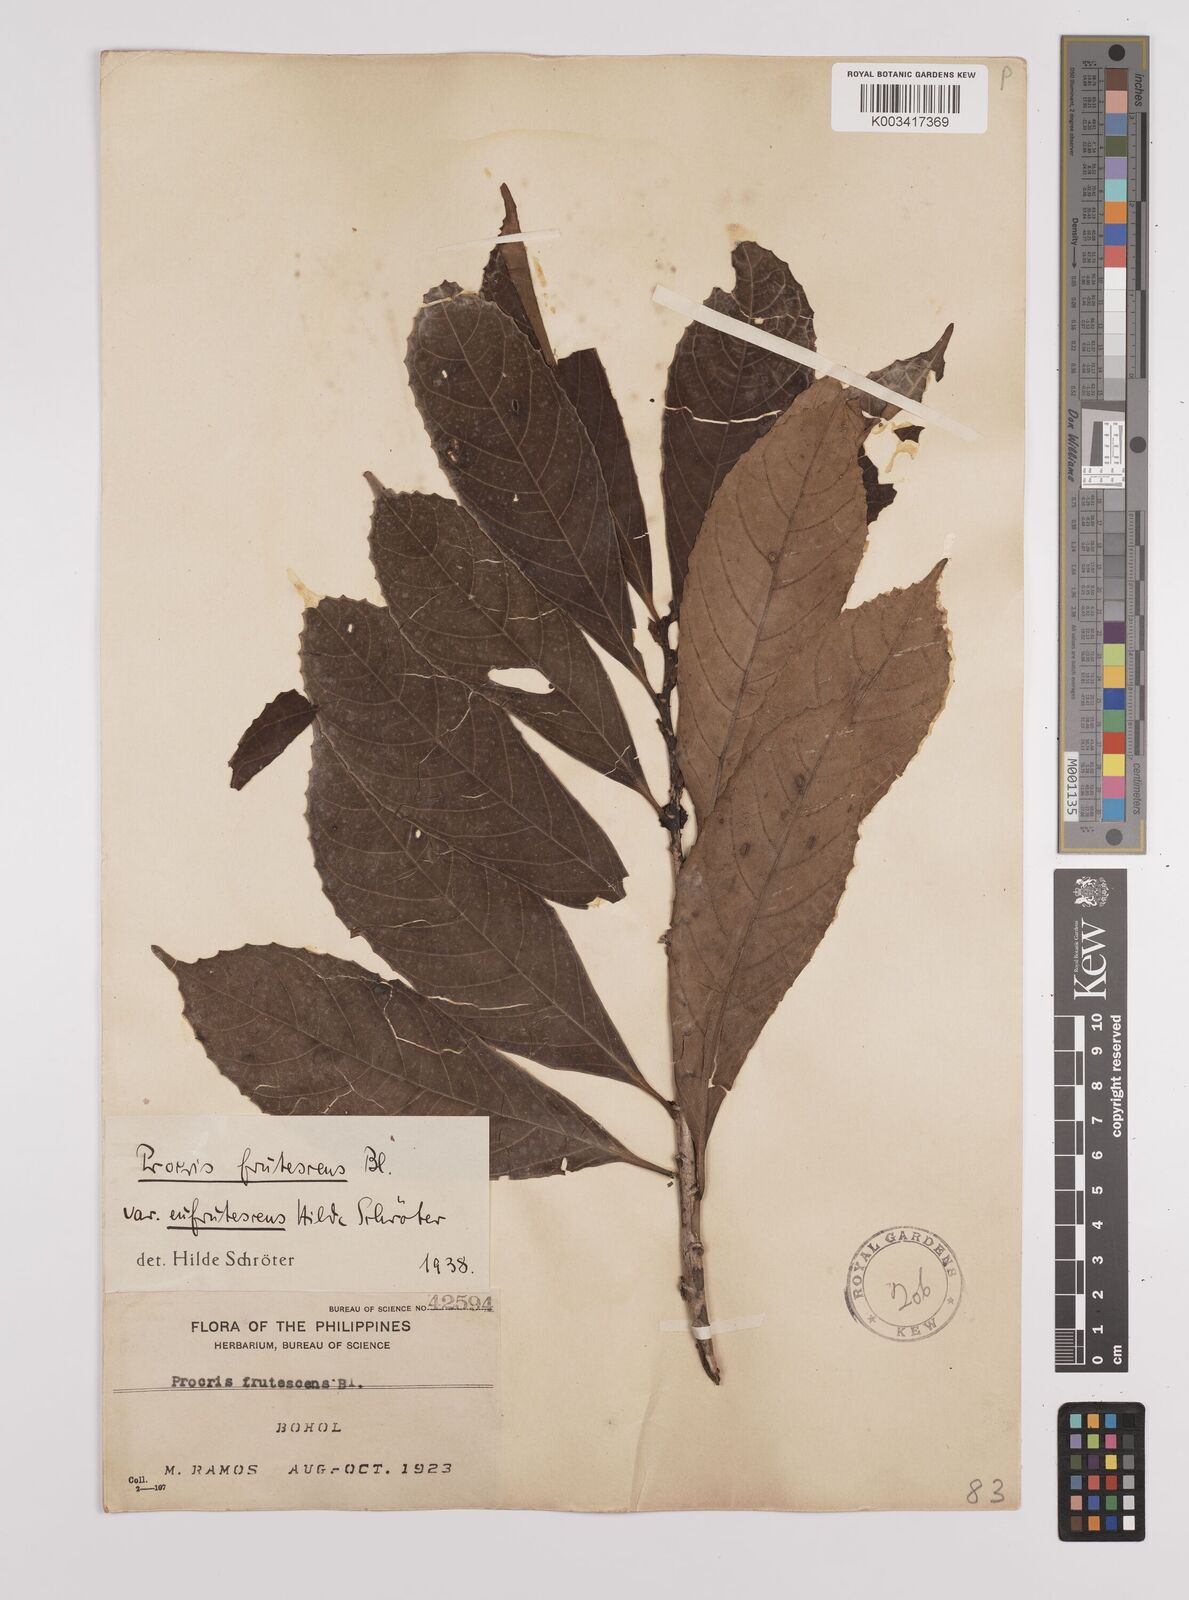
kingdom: Plantae
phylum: Tracheophyta
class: Magnoliopsida
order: Rosales
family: Urticaceae
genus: Procris
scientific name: Procris frutescens
